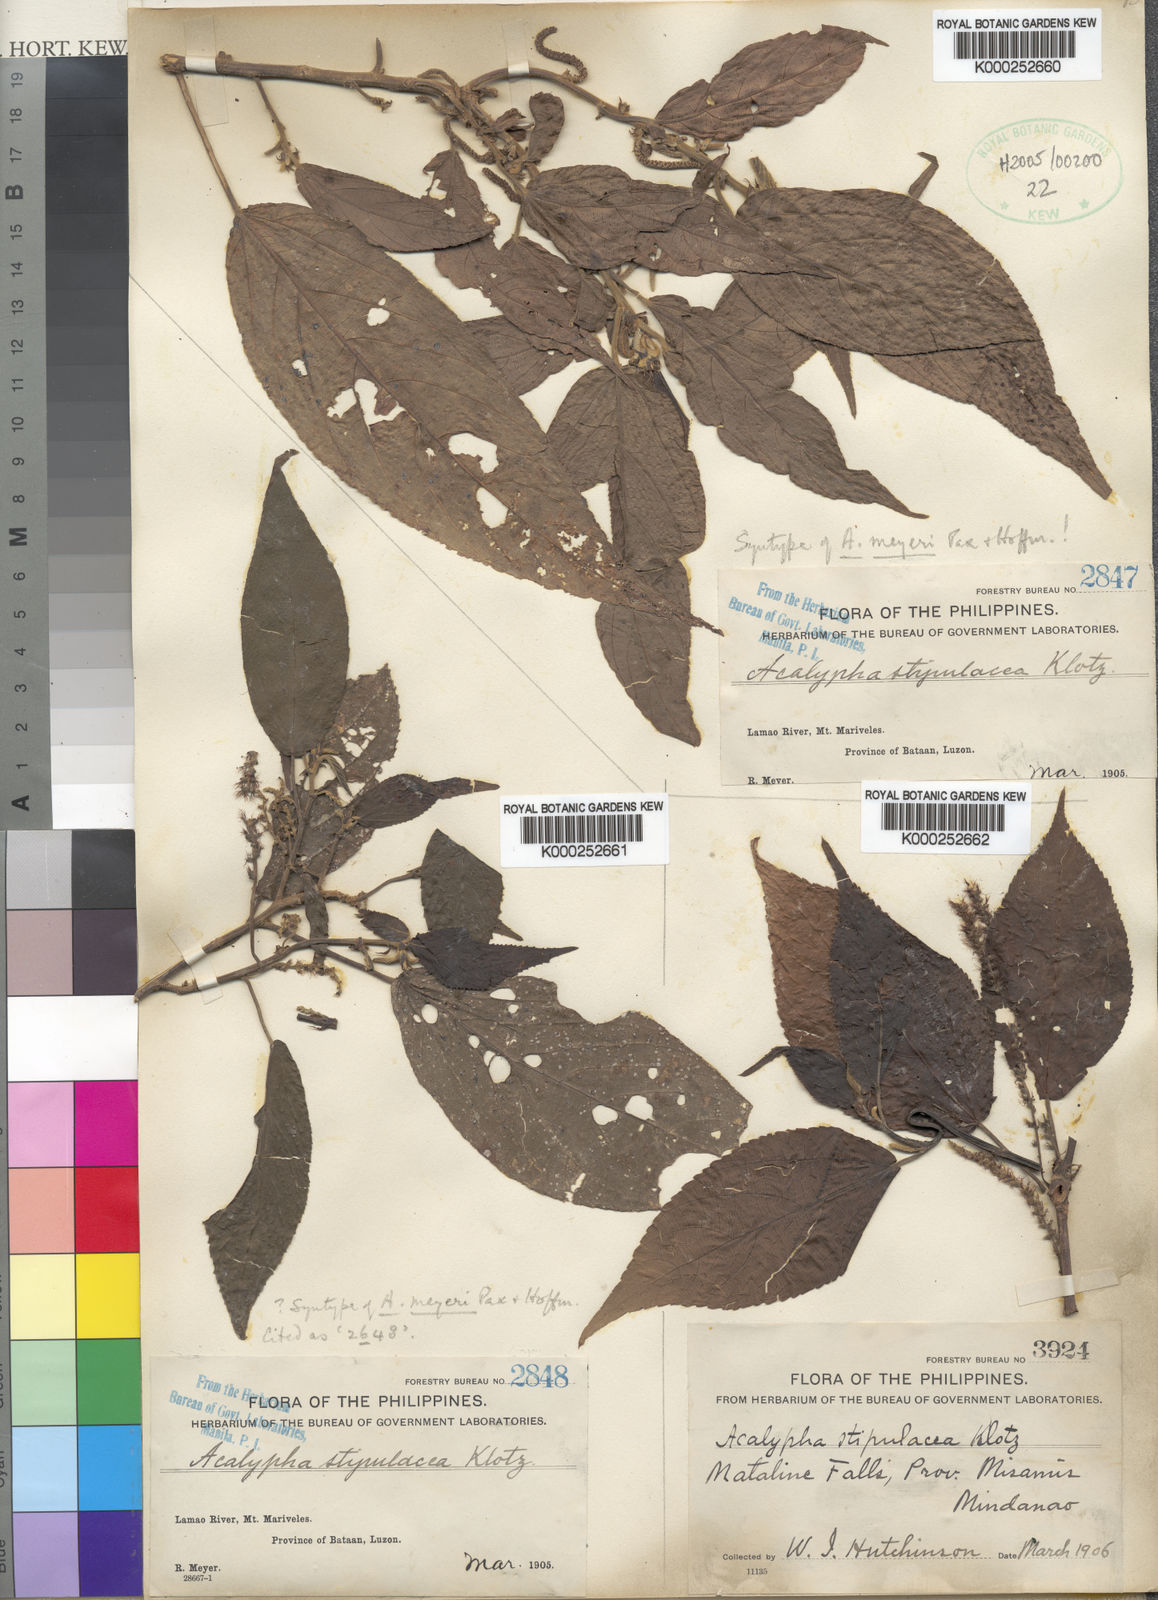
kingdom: Plantae
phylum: Tracheophyta
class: Magnoliopsida
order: Malpighiales
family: Euphorbiaceae
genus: Acalypha
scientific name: Acalypha amentacea
